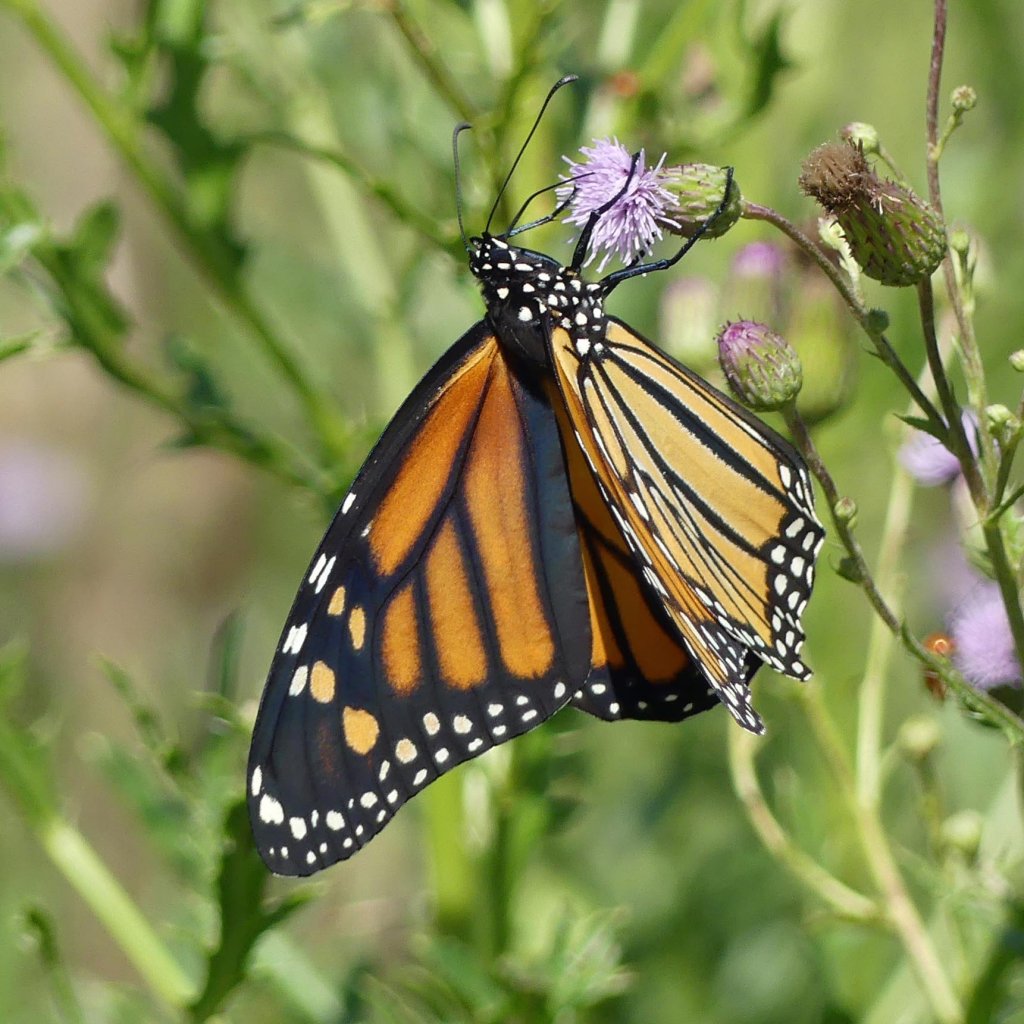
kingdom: Animalia
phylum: Arthropoda
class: Insecta
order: Lepidoptera
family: Nymphalidae
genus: Danaus
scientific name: Danaus plexippus
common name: Monarch
